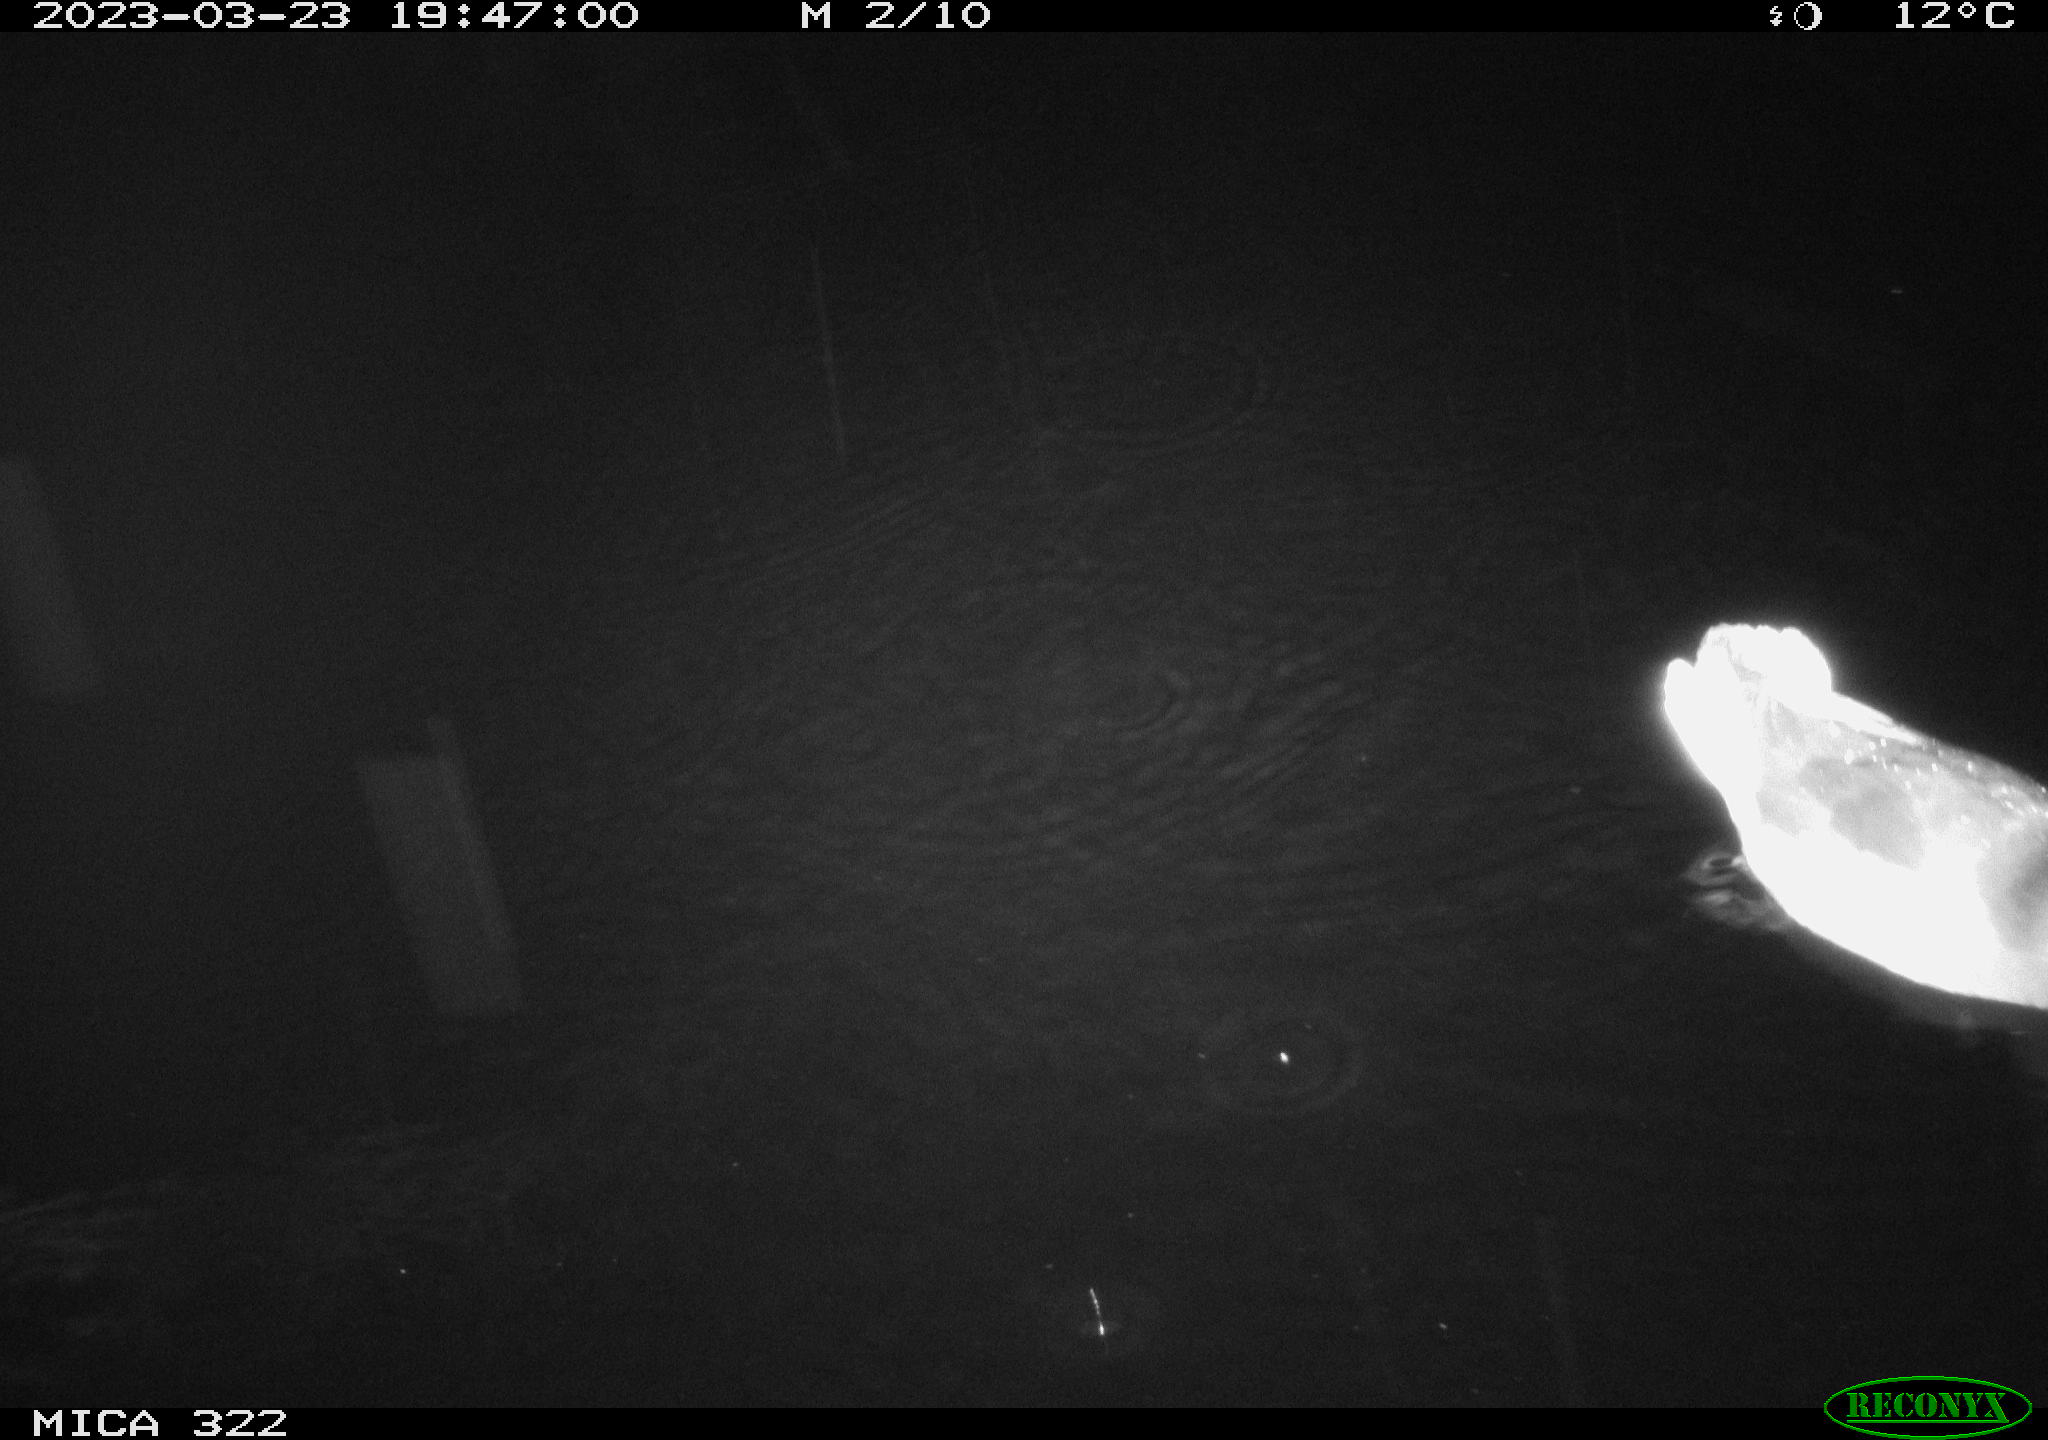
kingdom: Animalia
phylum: Chordata
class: Aves
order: Anseriformes
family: Anatidae
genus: Anas
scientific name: Anas
